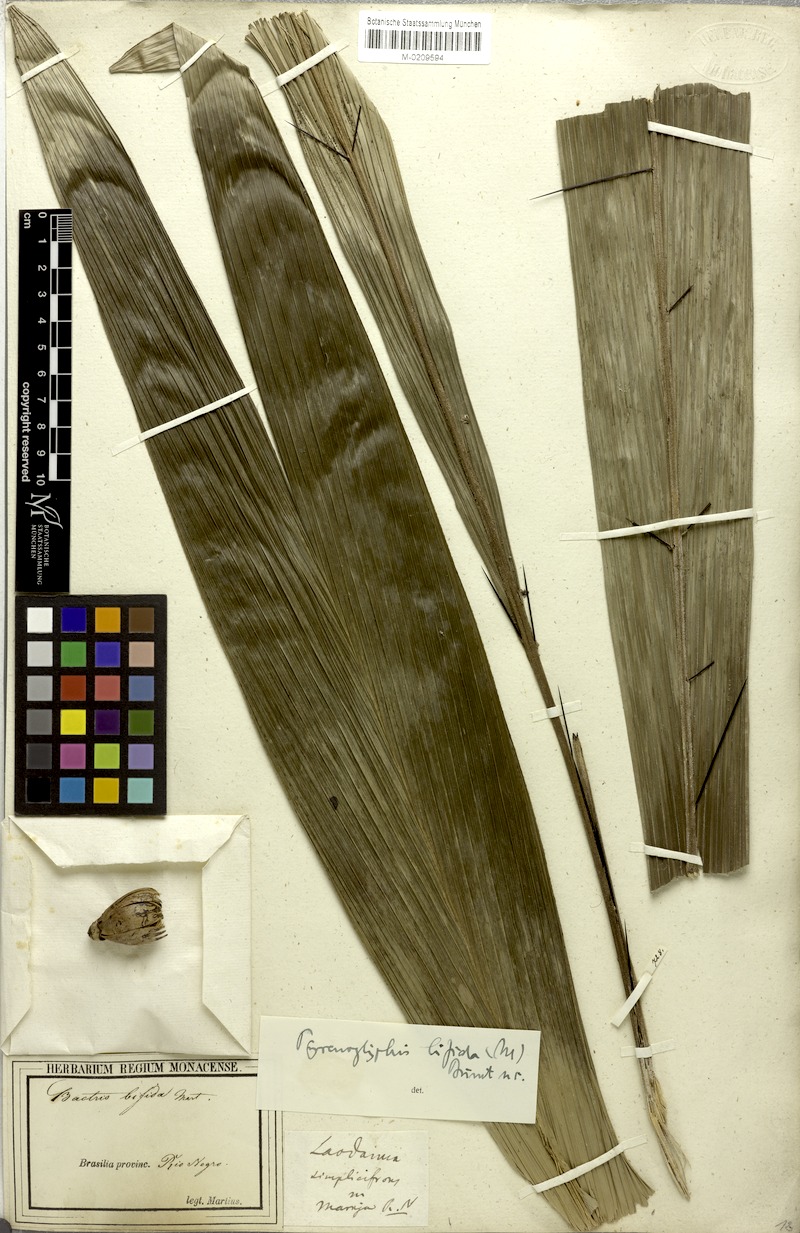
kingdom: Plantae
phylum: Tracheophyta
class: Liliopsida
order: Arecales
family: Arecaceae
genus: Bactris
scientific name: Bactris bifida
